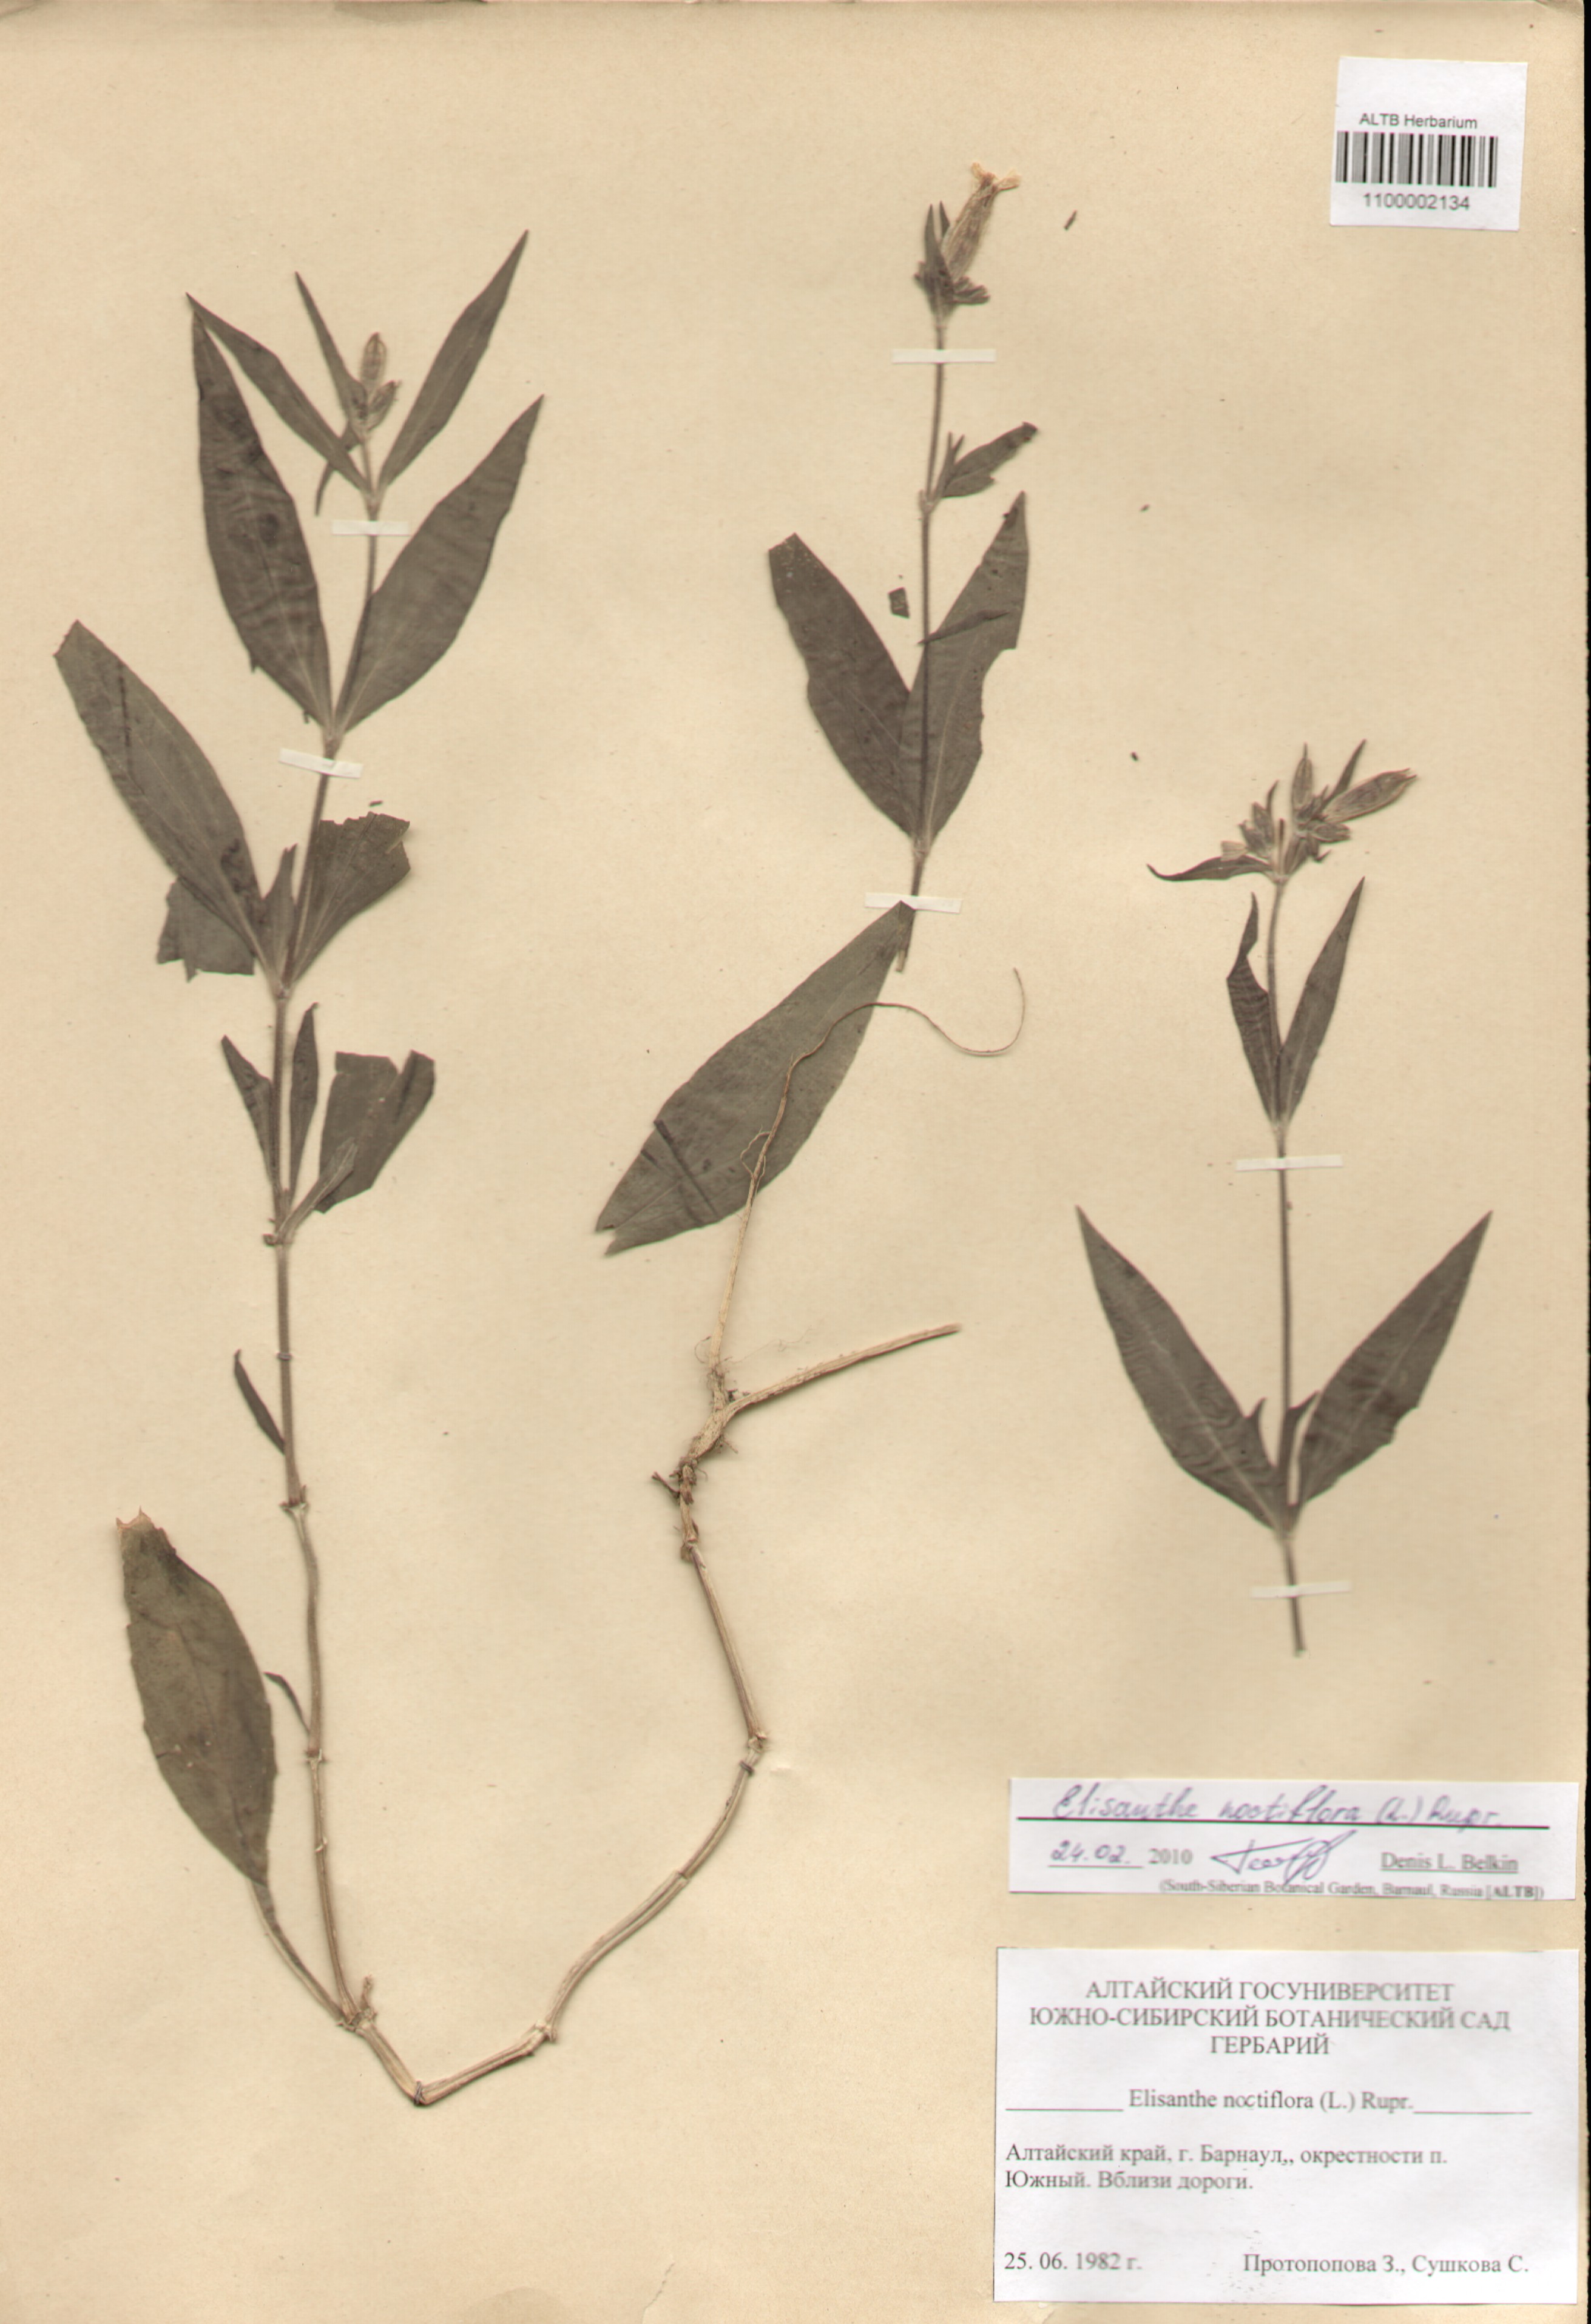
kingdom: Plantae
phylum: Tracheophyta
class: Magnoliopsida
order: Caryophyllales
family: Caryophyllaceae
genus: Silene
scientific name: Silene noctiflora
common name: Night-flowering catchfly
